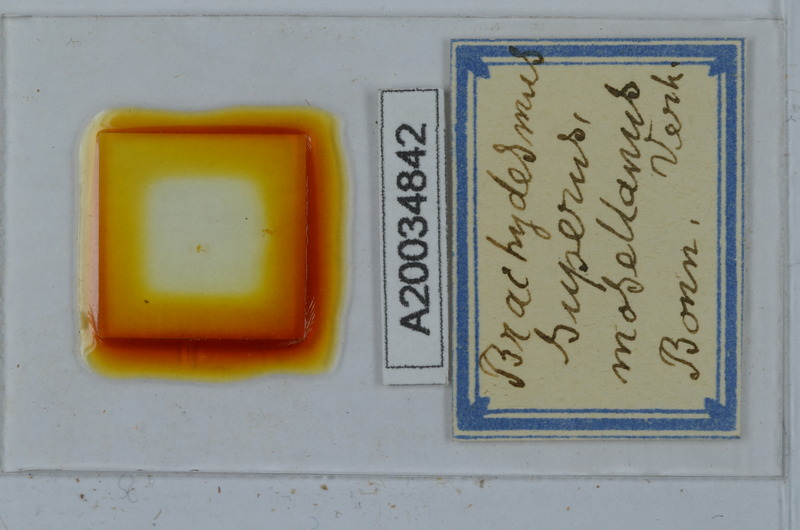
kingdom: Animalia
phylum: Arthropoda
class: Diplopoda
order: Polydesmida
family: Polydesmidae
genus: Brachydesmus
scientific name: Brachydesmus superus
